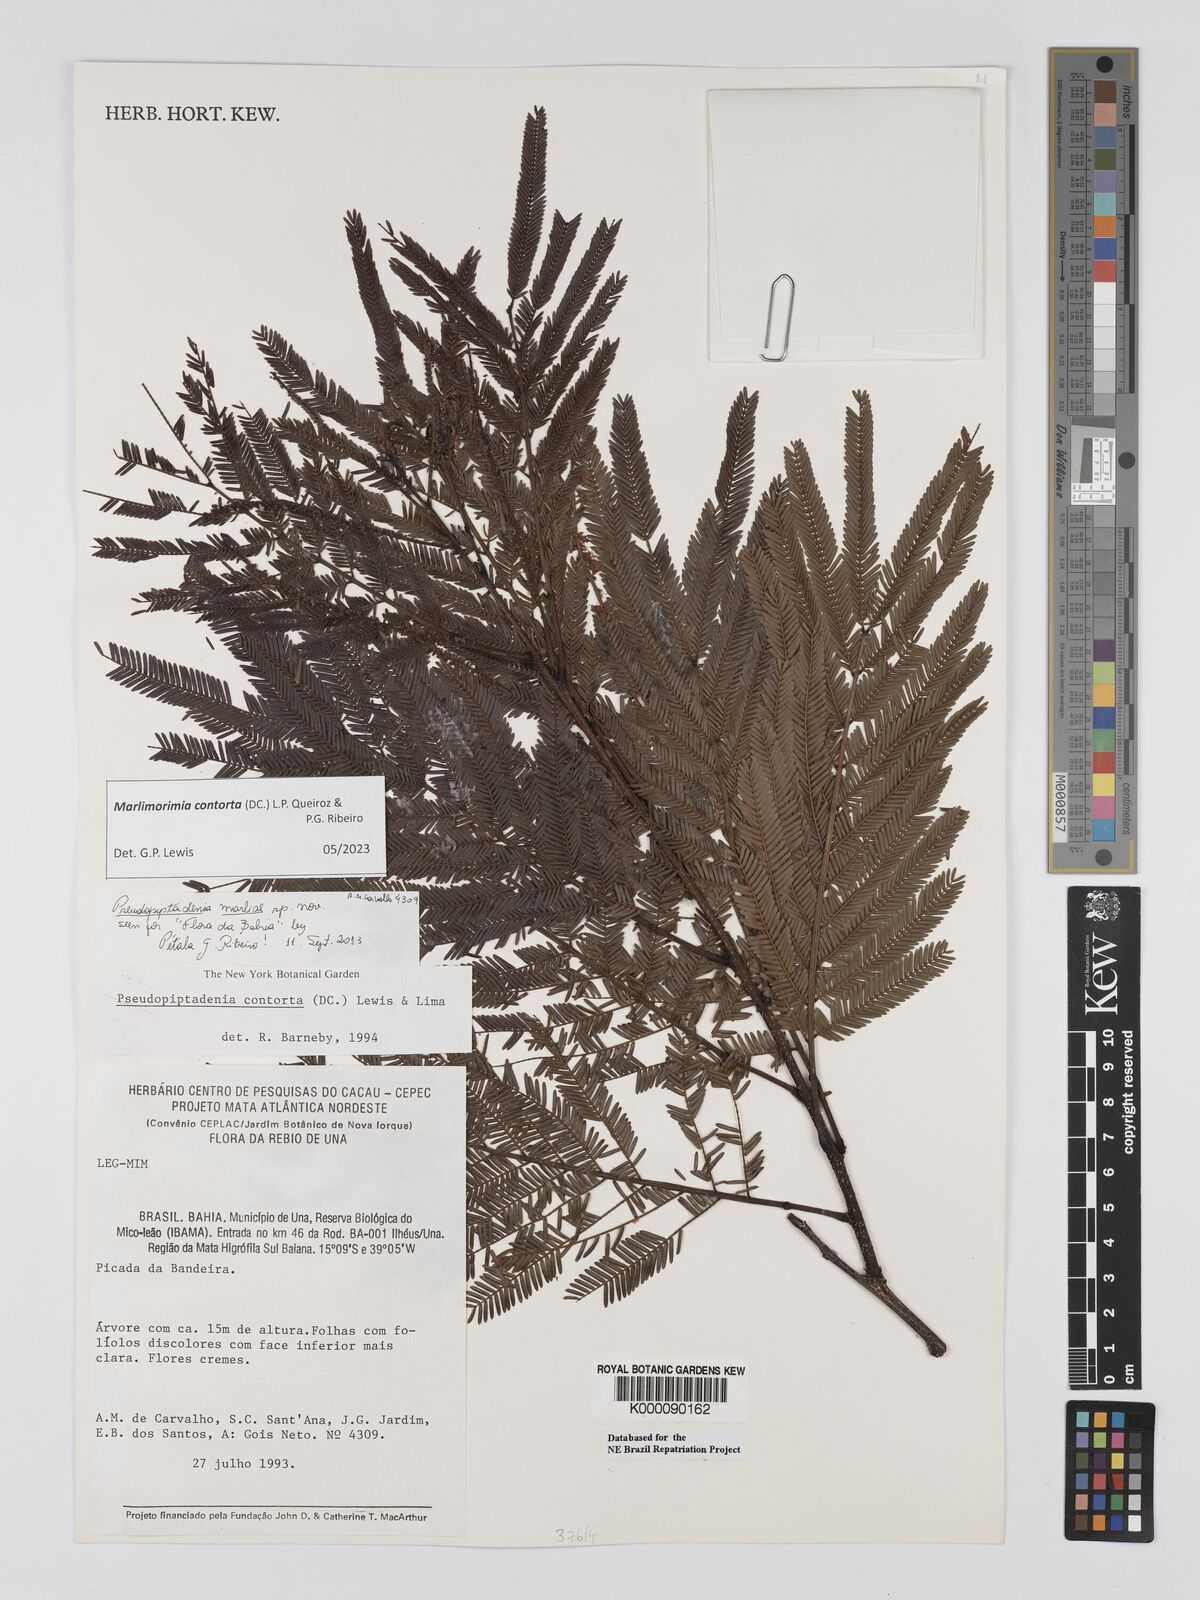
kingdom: Plantae
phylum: Tracheophyta
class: Magnoliopsida
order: Fabales
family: Fabaceae
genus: Pseudopiptadenia
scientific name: Pseudopiptadenia contorta
